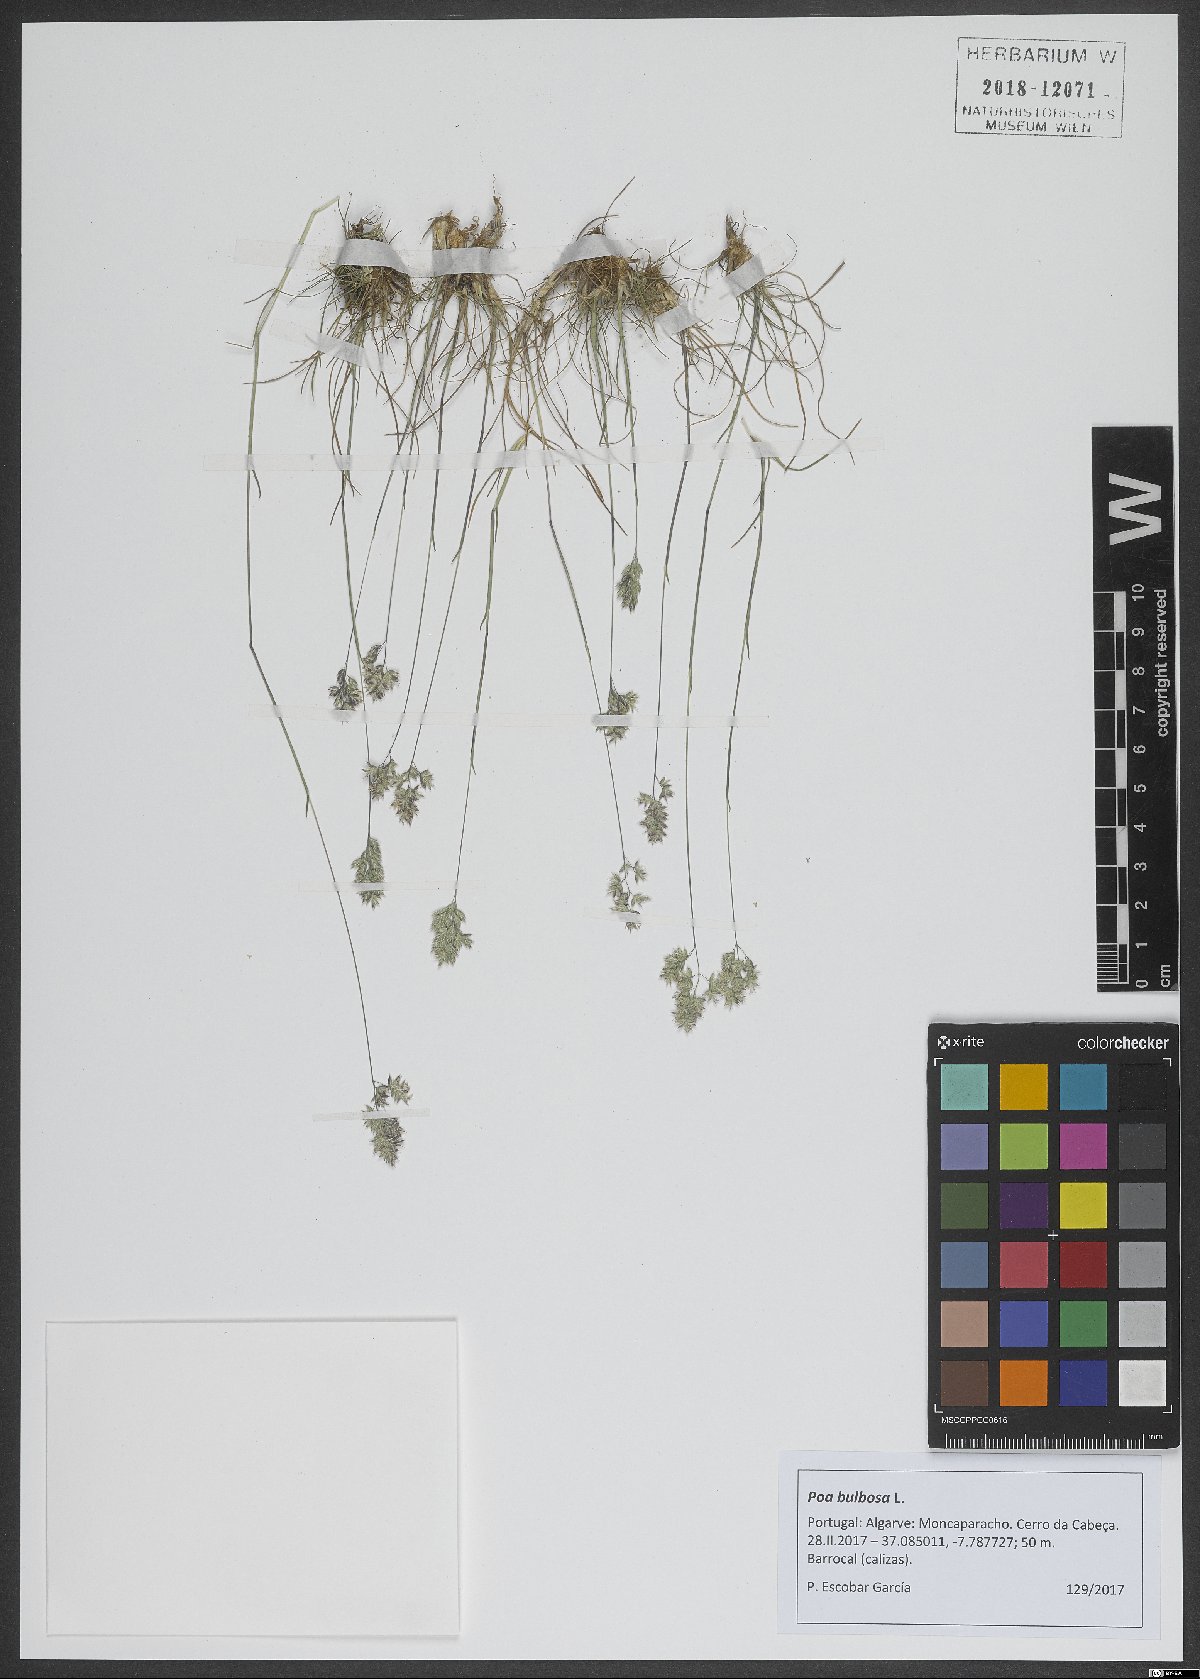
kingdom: Plantae
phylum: Tracheophyta
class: Liliopsida
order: Poales
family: Poaceae
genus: Poa
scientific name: Poa bulbosa
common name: Bulbous bluegrass
